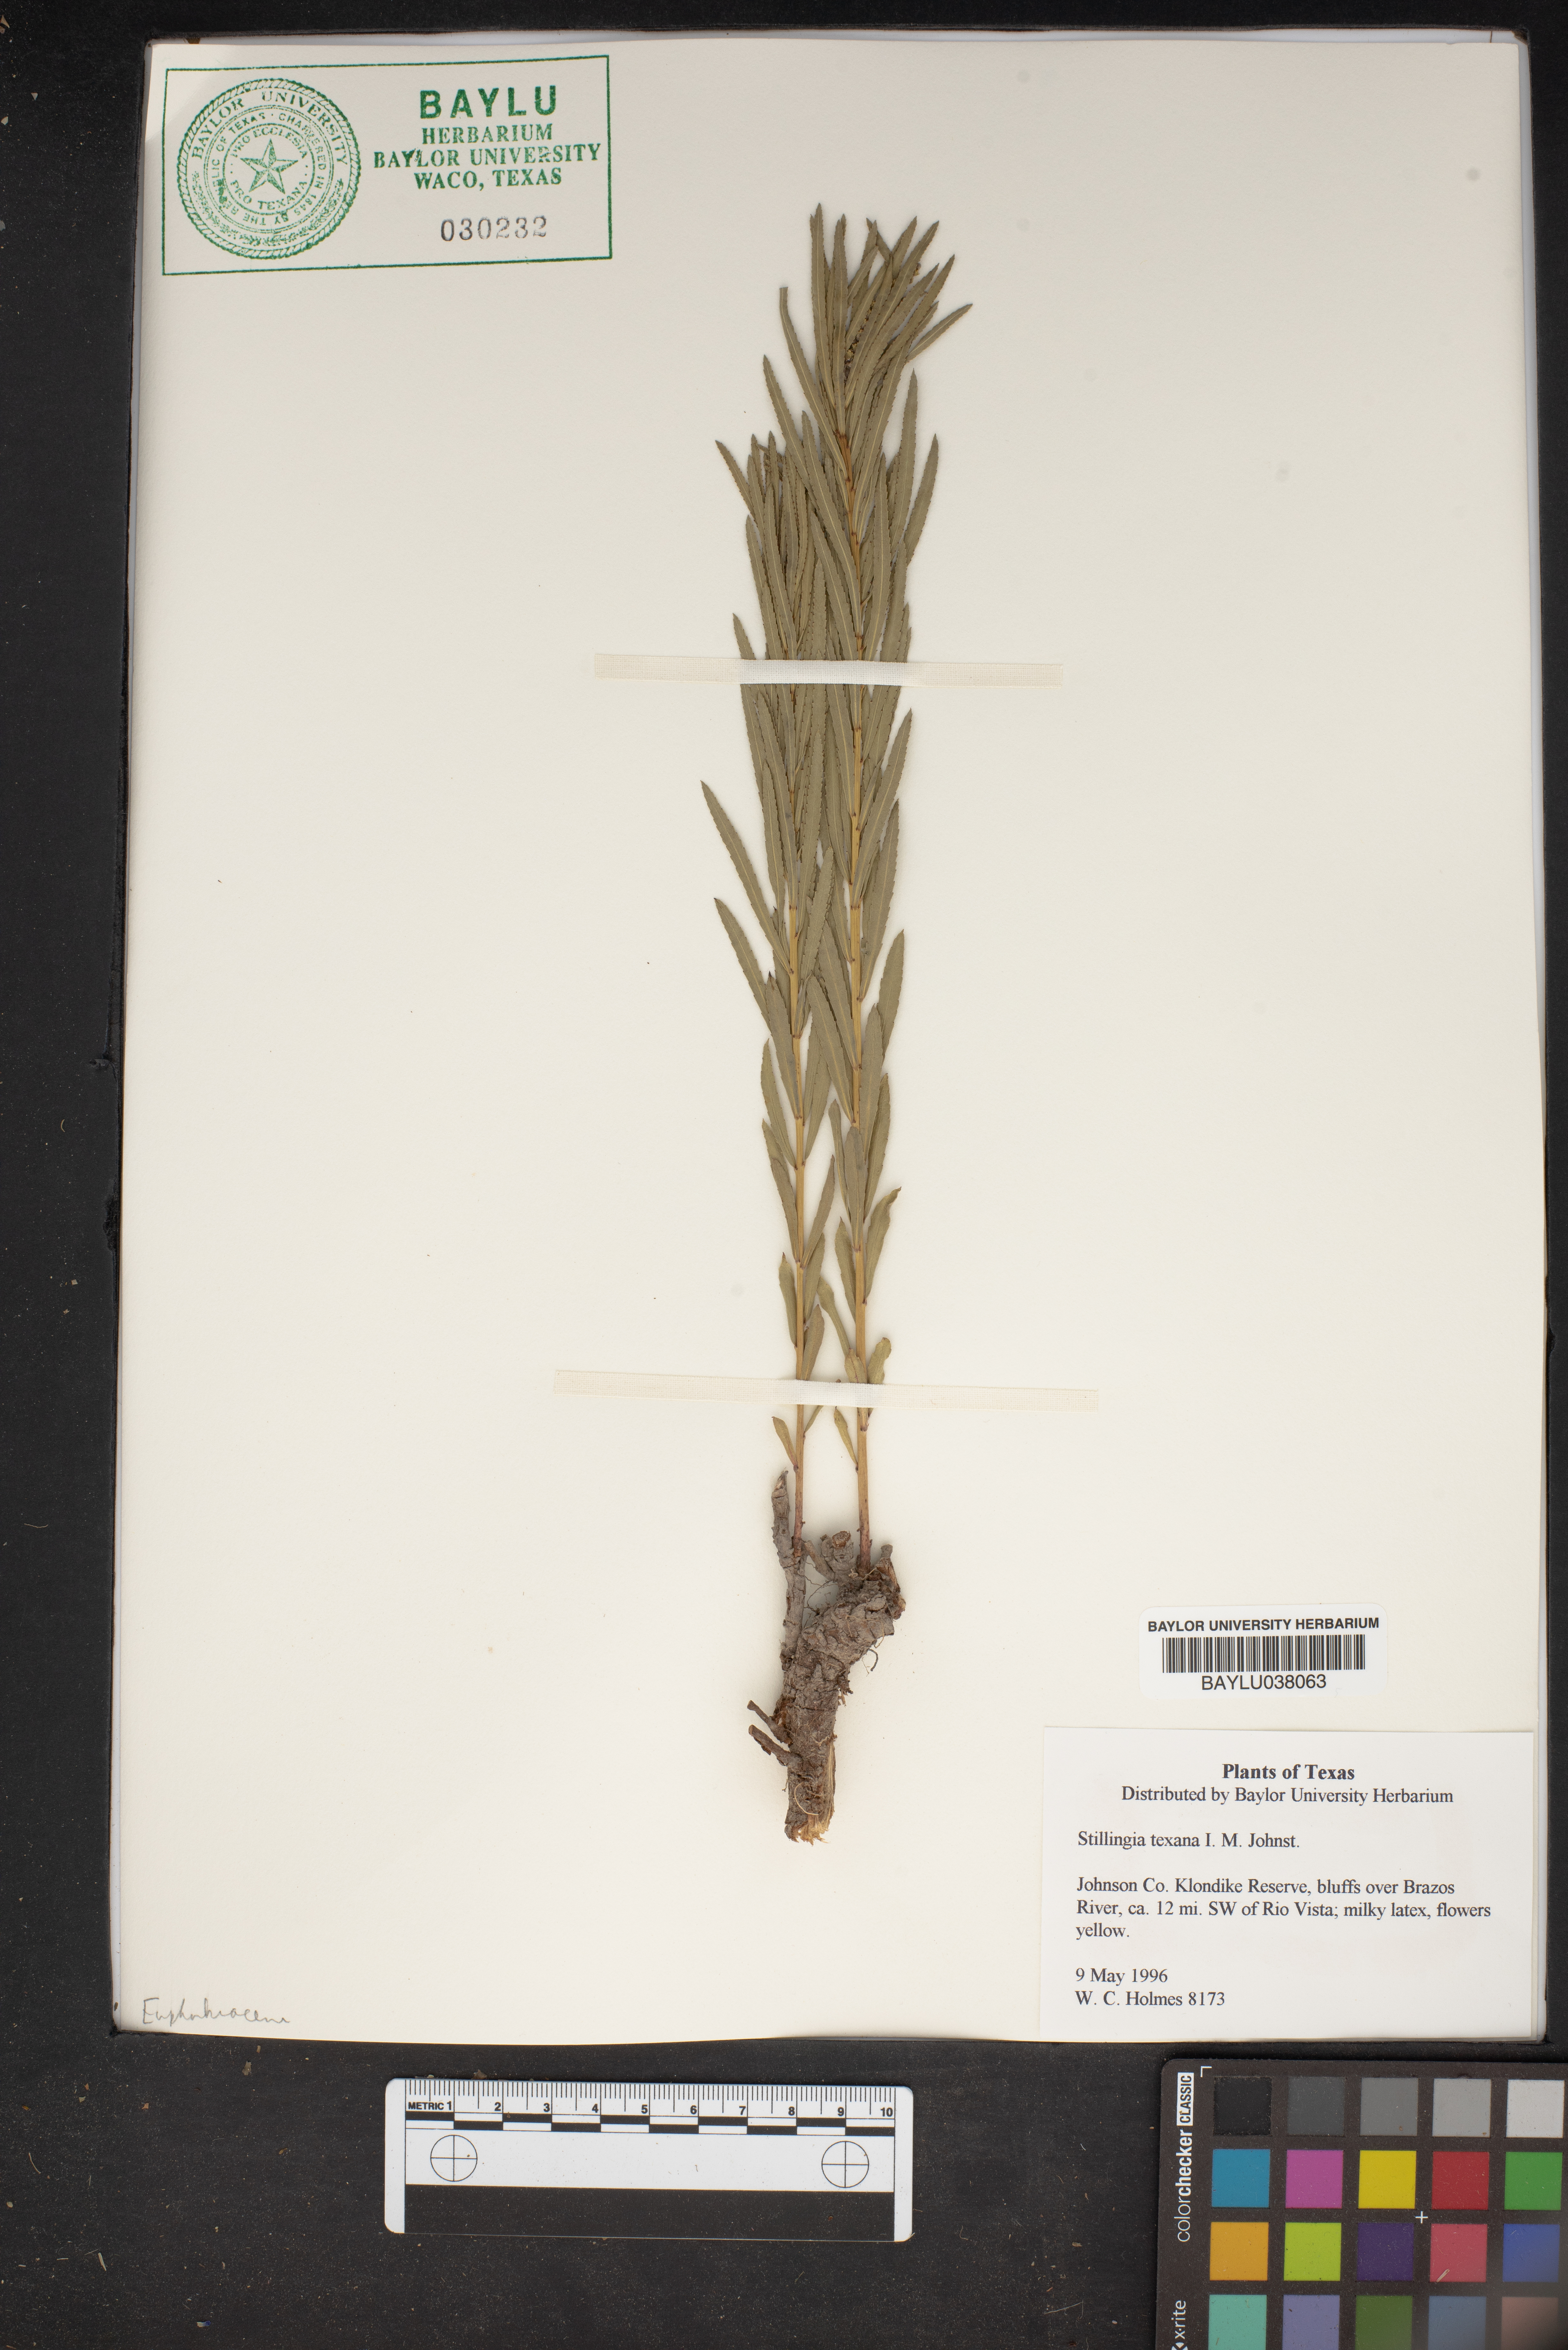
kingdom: Plantae
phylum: Tracheophyta
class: Magnoliopsida
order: Malpighiales
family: Euphorbiaceae
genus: Stillingia
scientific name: Stillingia texana
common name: Texas stillingia
